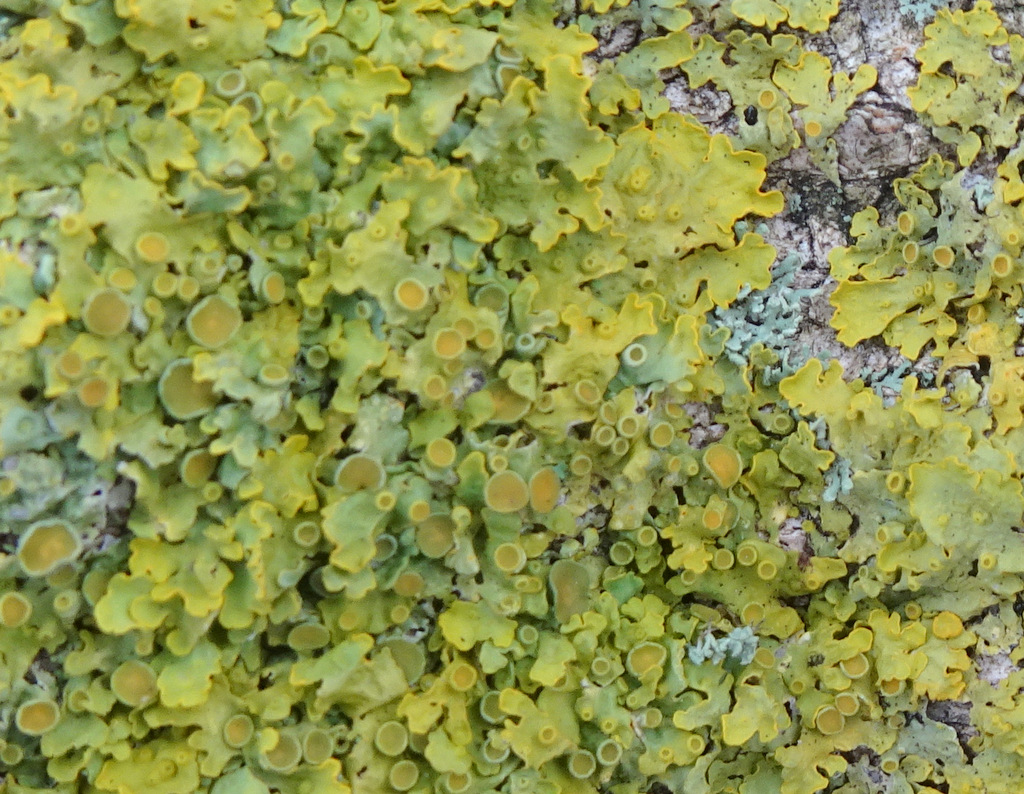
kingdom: Fungi
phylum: Ascomycota
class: Lecanoromycetes
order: Teloschistales
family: Teloschistaceae
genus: Xanthoria
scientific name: Xanthoria parietina
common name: almindelig væggelav
